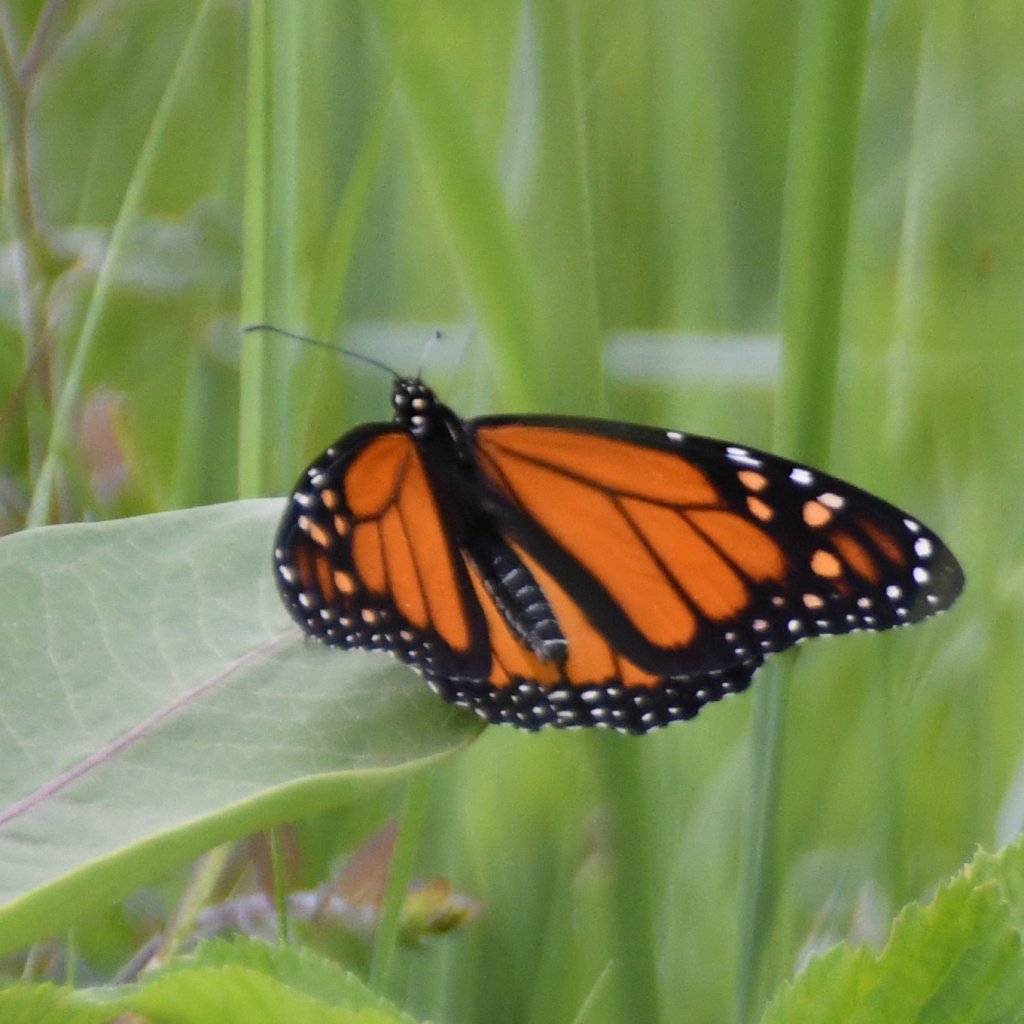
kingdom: Animalia
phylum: Arthropoda
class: Insecta
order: Lepidoptera
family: Nymphalidae
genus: Danaus
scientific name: Danaus plexippus
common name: Monarch
